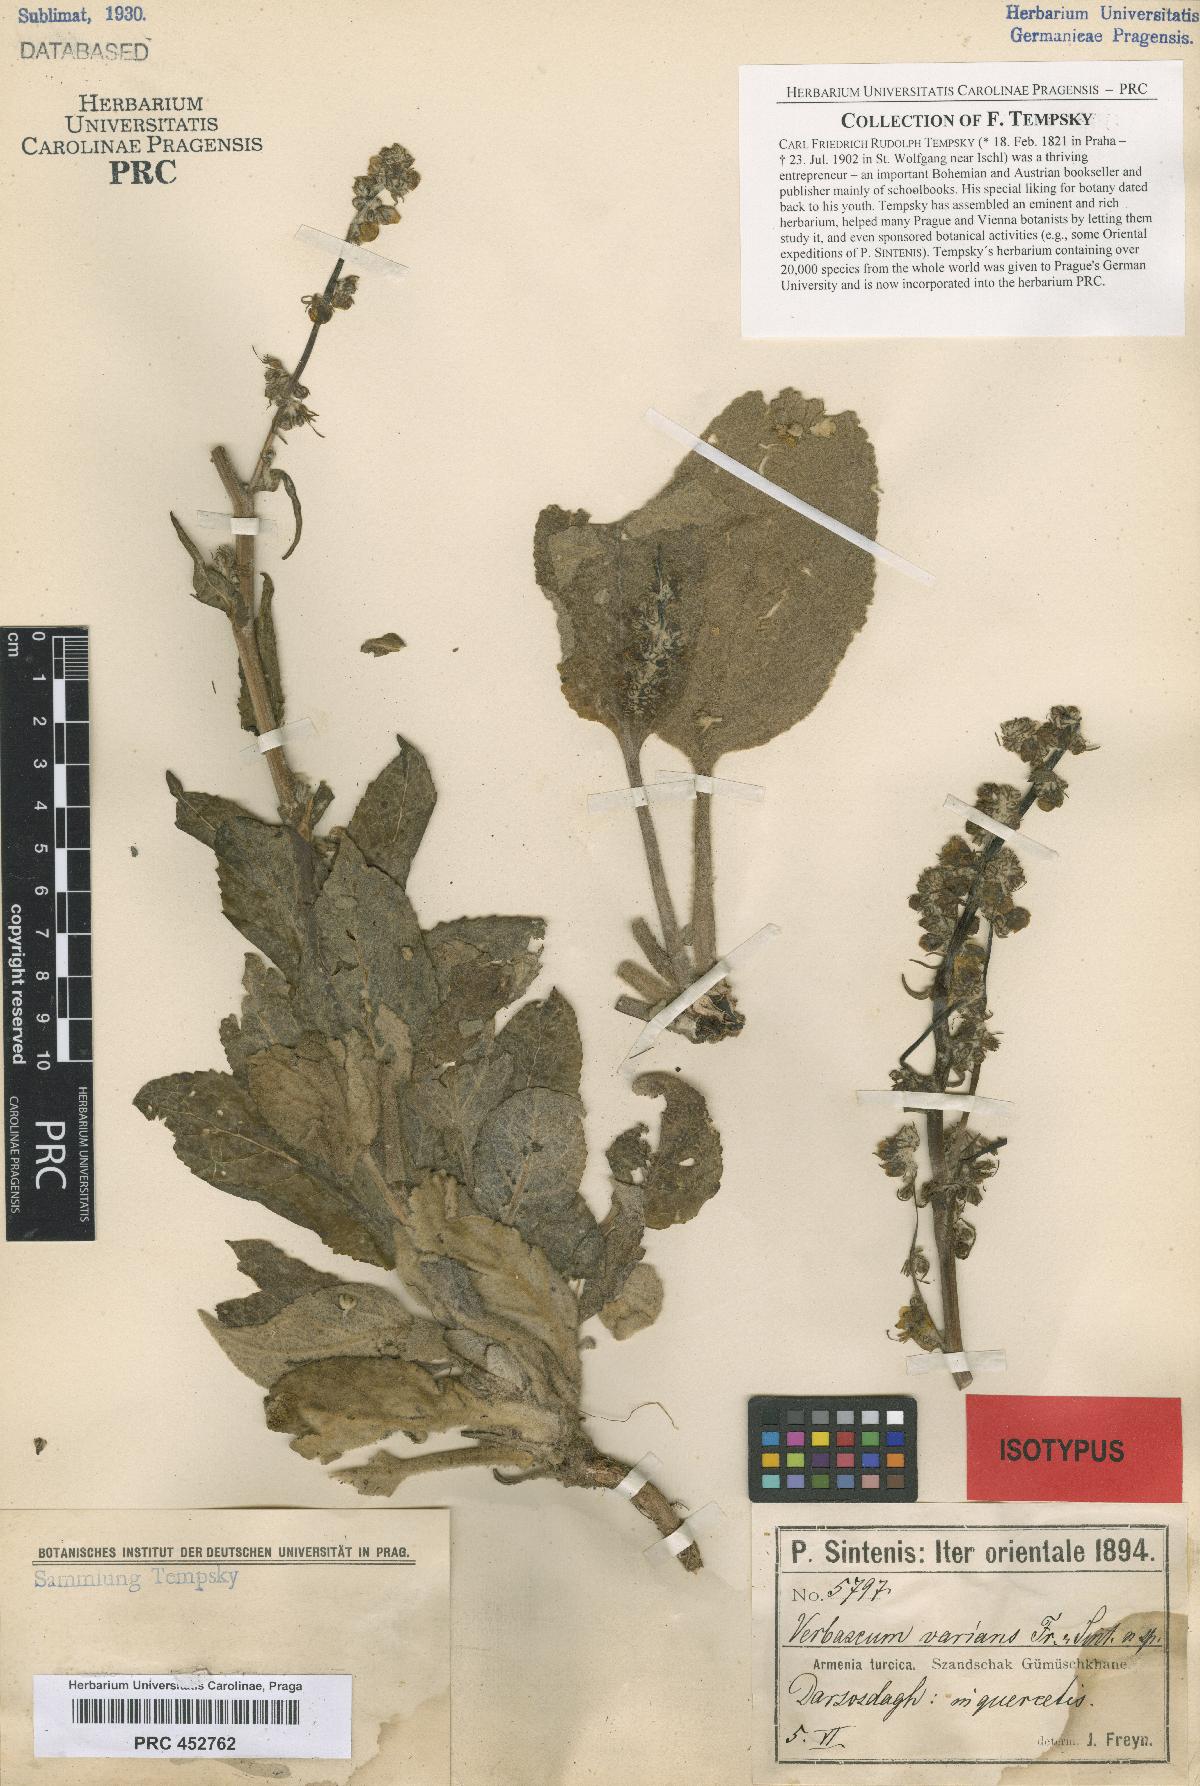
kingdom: Plantae
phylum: Tracheophyta
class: Magnoliopsida
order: Lamiales
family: Scrophulariaceae
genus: Verbascum
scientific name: Verbascum varians
